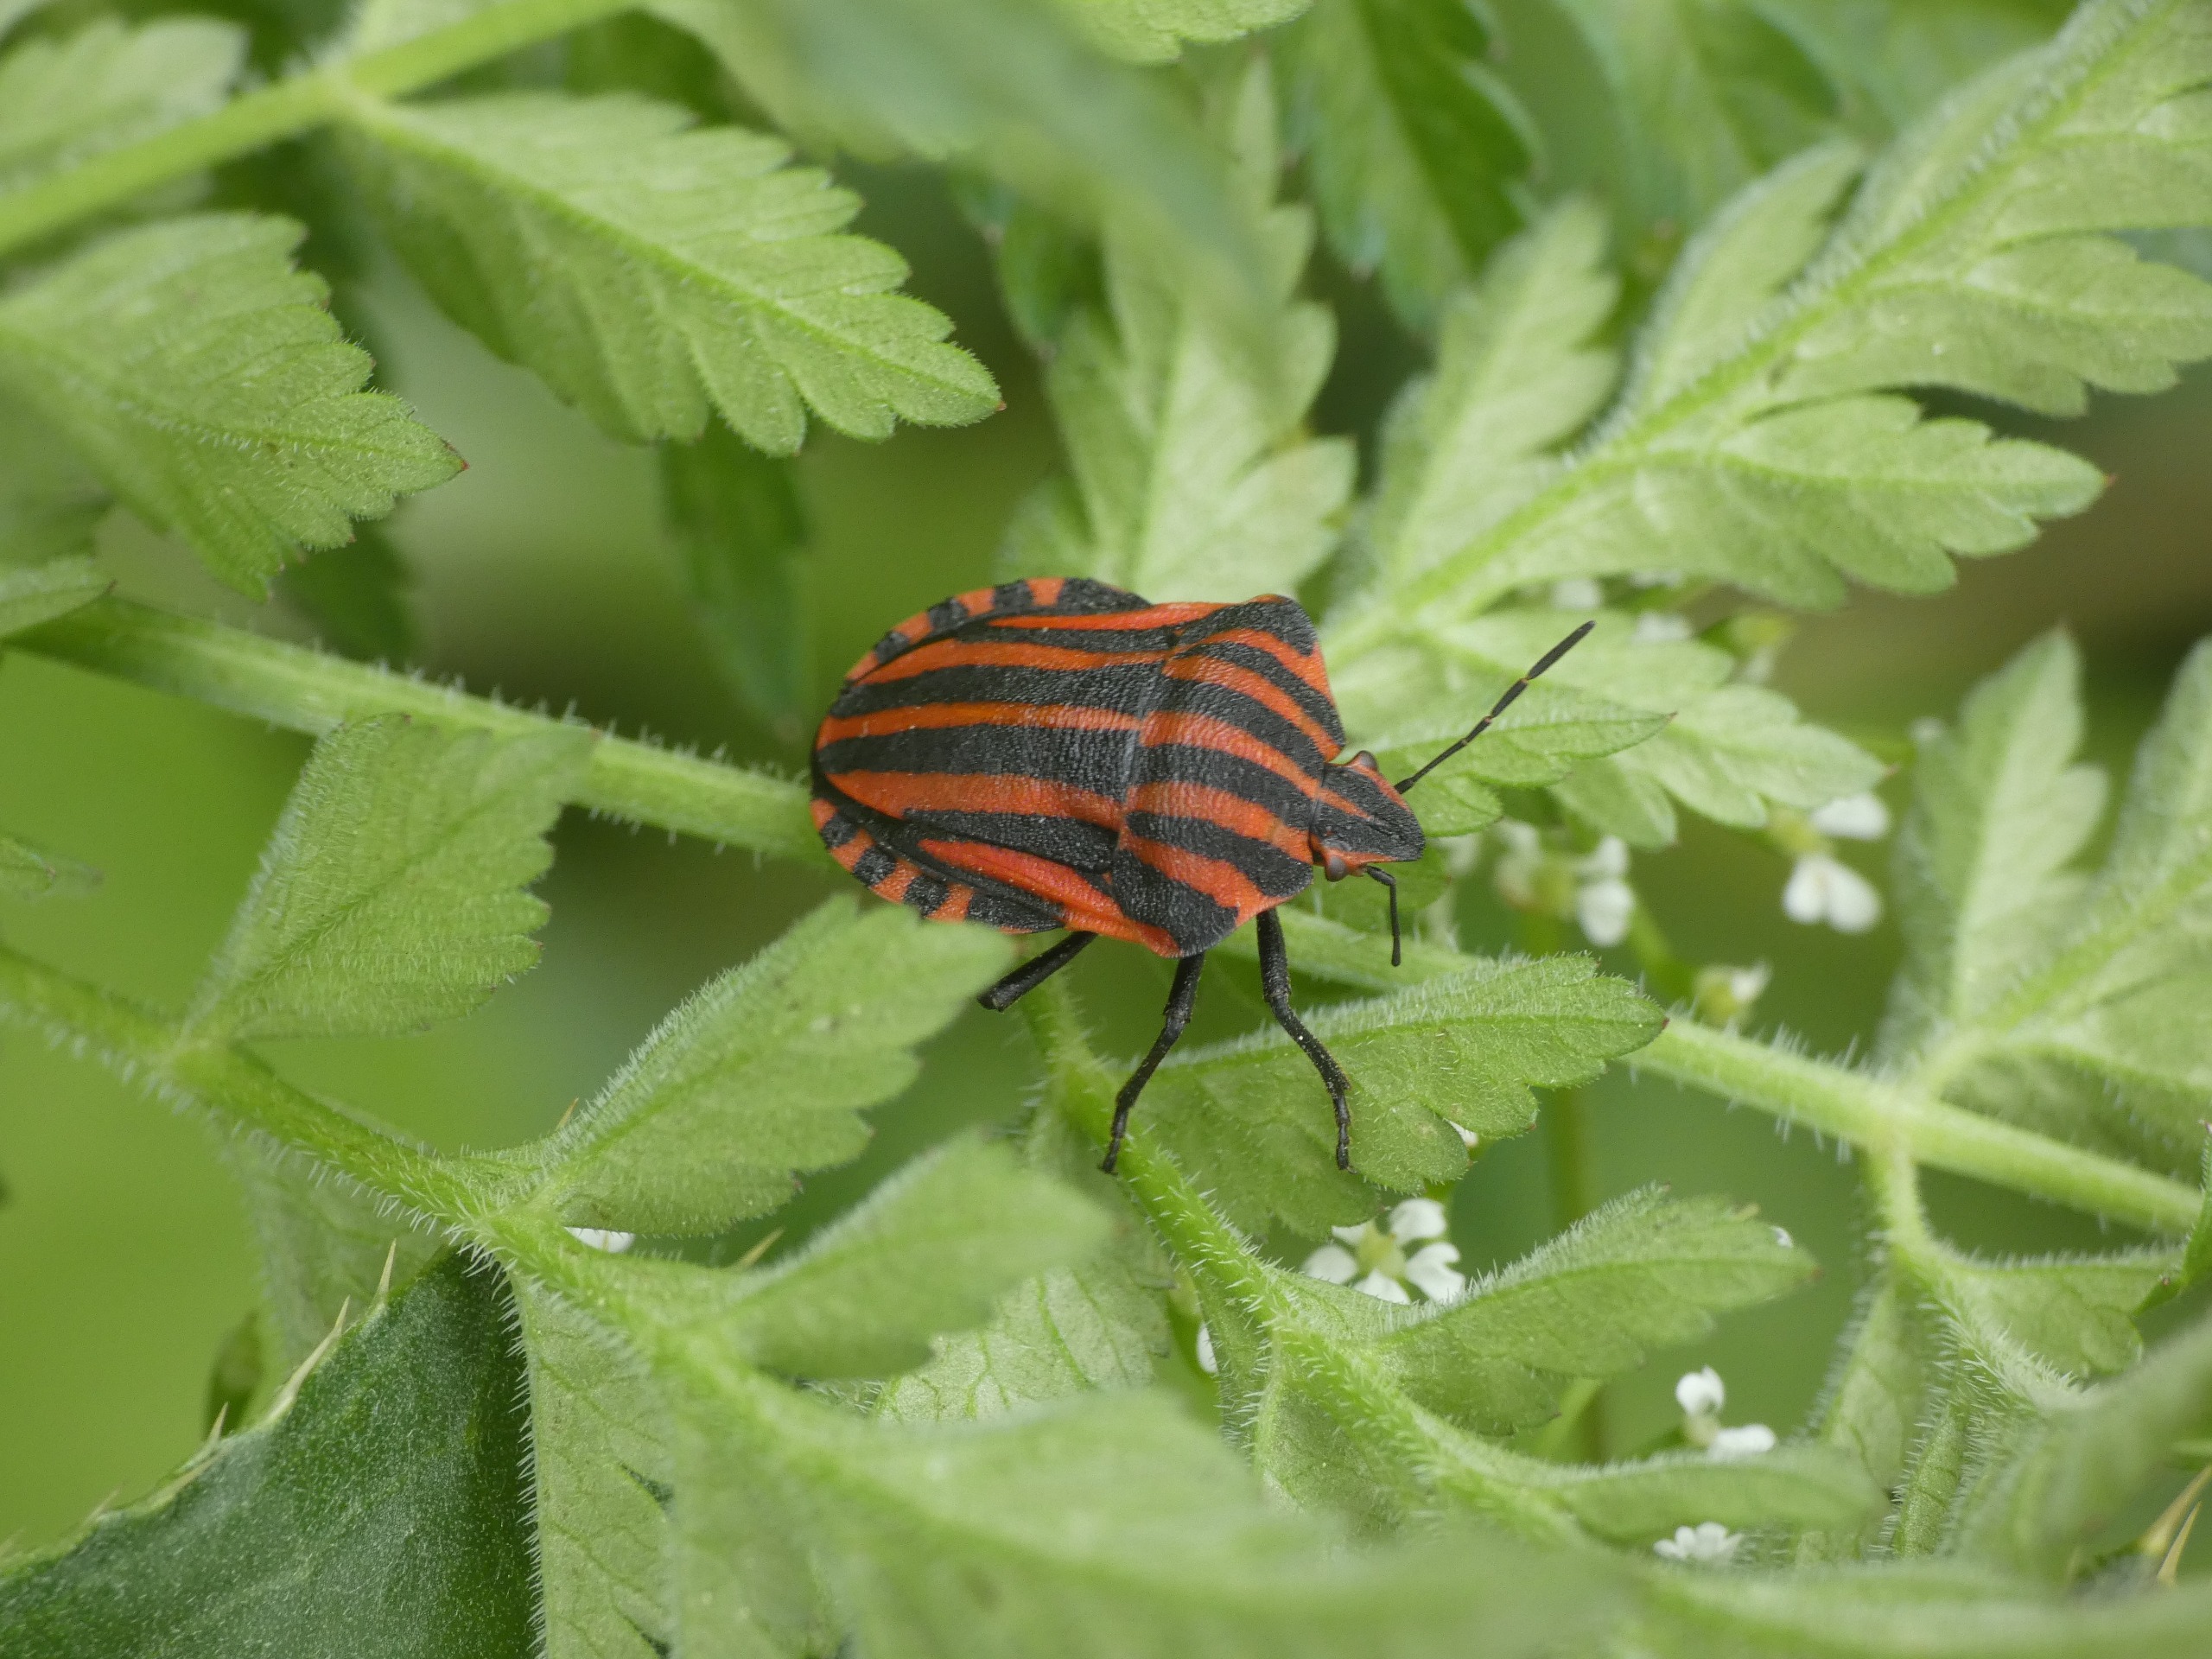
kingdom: Animalia
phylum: Arthropoda
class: Insecta
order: Hemiptera
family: Pentatomidae
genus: Graphosoma
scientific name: Graphosoma italicum
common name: Stribetæge
